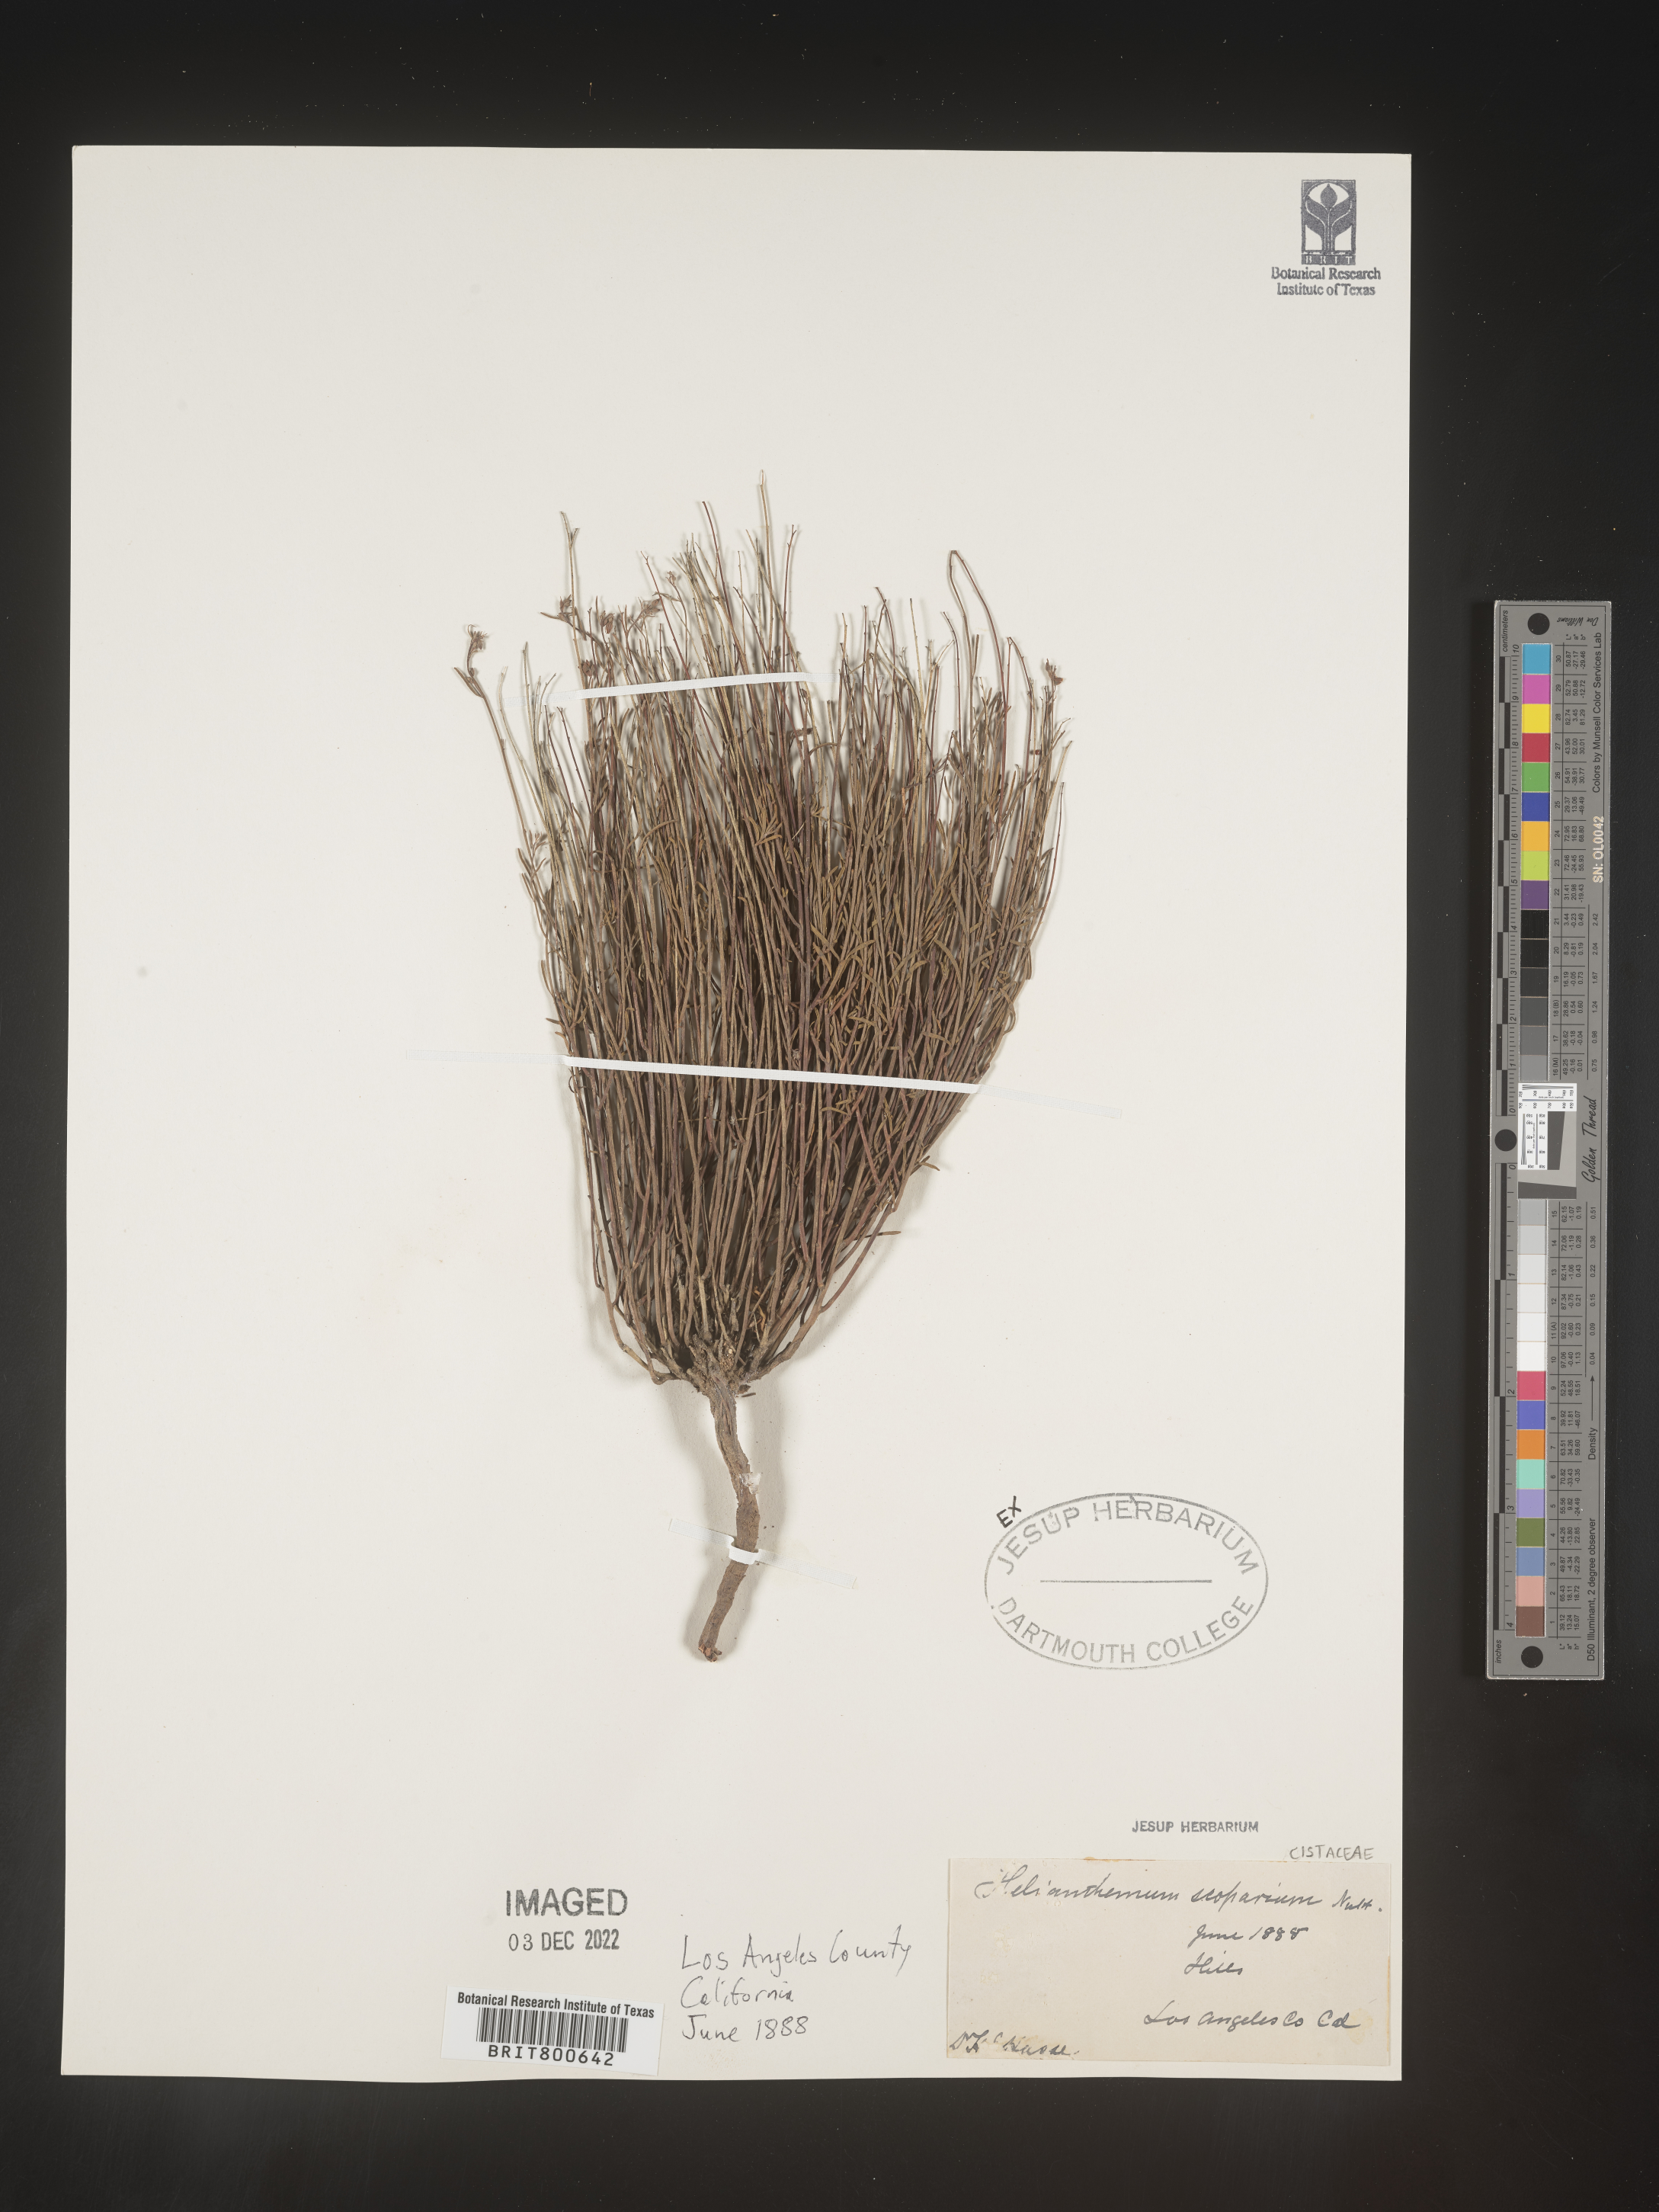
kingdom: Plantae
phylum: Tracheophyta
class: Magnoliopsida
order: Malvales
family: Cistaceae
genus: Helianthemum
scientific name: Helianthemum
